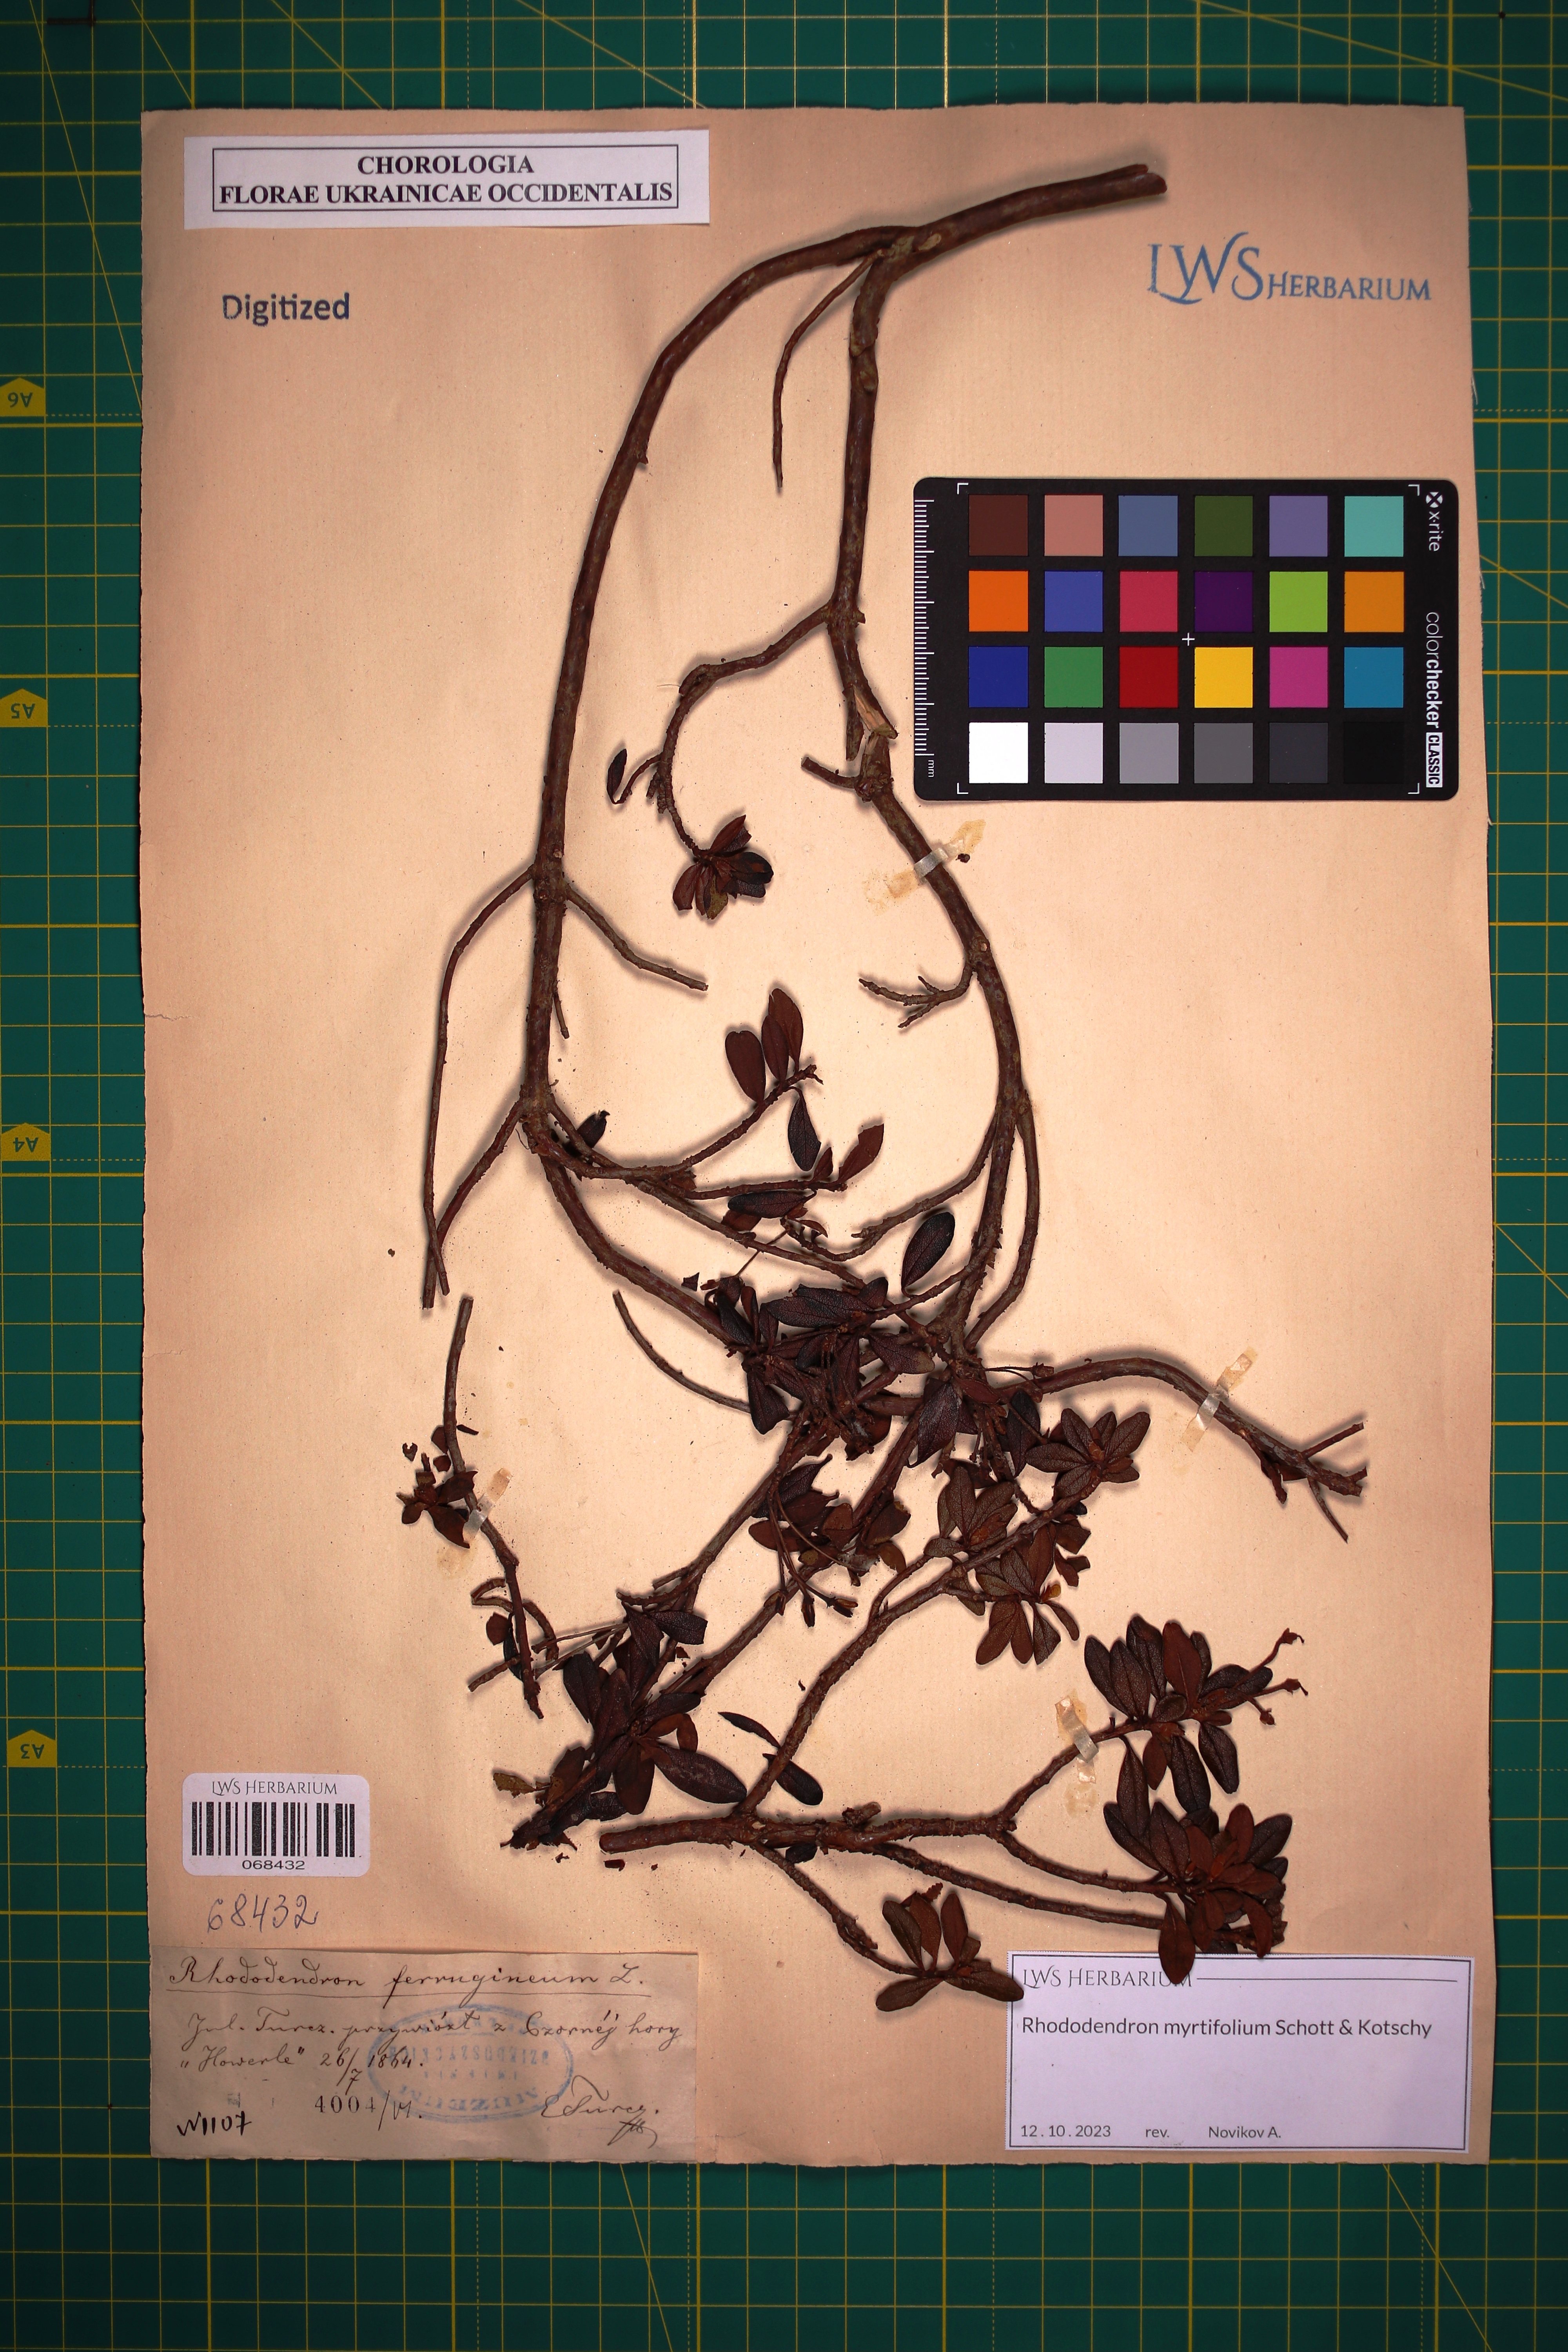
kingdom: Plantae
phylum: Tracheophyta
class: Magnoliopsida
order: Ericales
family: Ericaceae
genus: Rhododendron
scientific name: Rhododendron kotschyi
